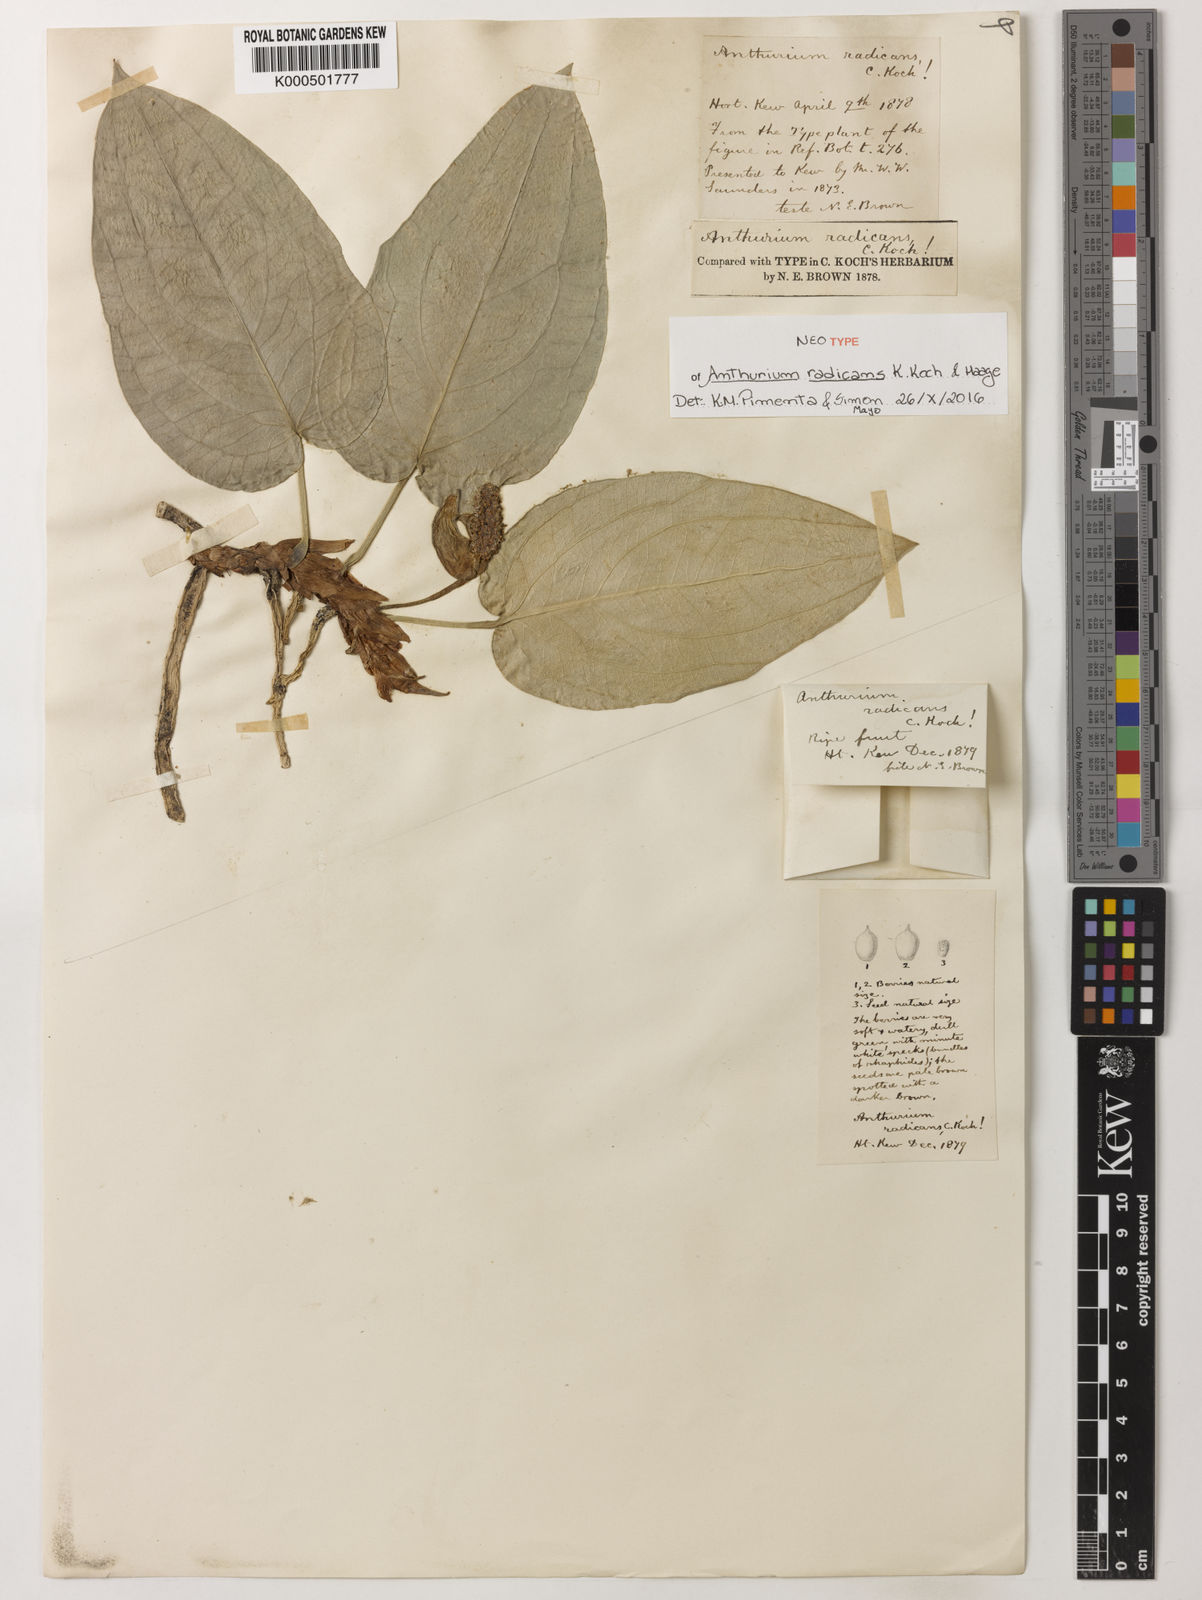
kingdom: Plantae
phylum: Tracheophyta
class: Liliopsida
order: Alismatales
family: Araceae
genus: Anthurium
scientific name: Anthurium radicans
